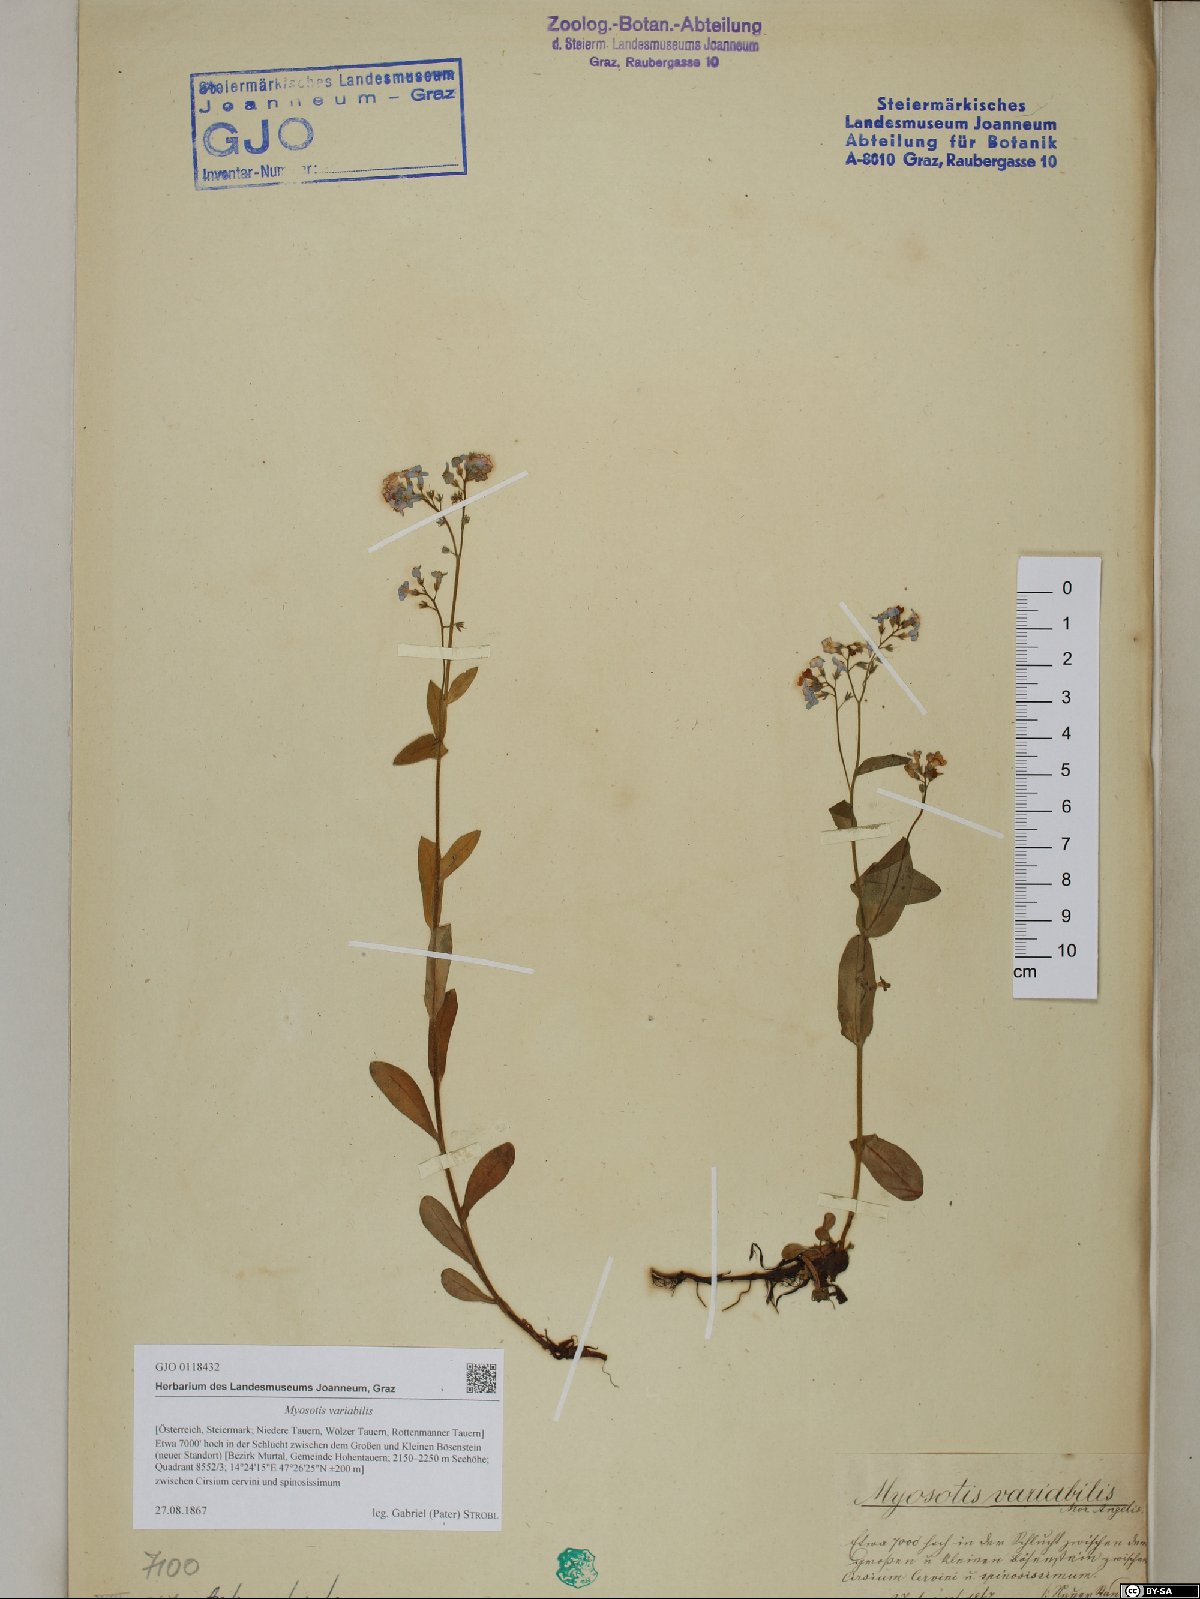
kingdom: Plantae
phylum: Tracheophyta
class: Magnoliopsida
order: Boraginales
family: Boraginaceae
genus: Myosotis
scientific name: Myosotis decumbens
